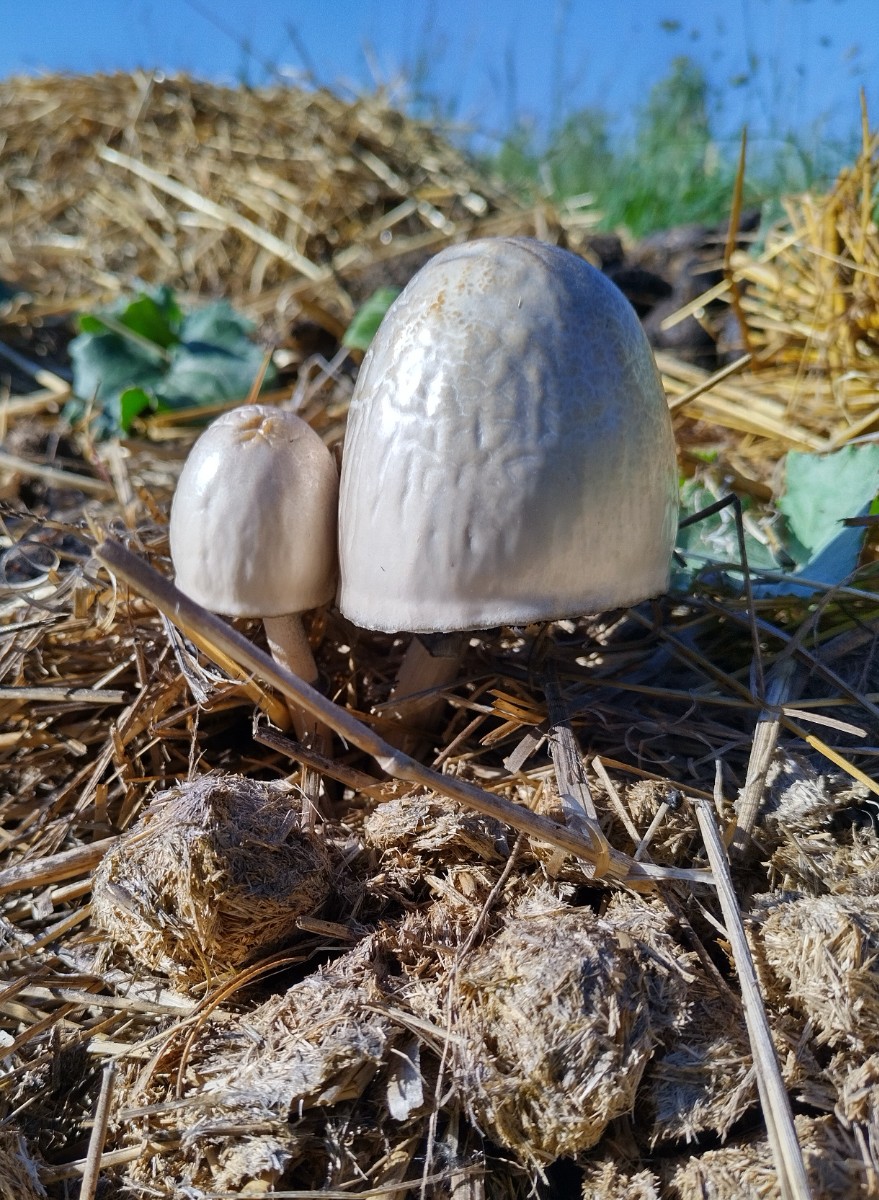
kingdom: Fungi
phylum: Basidiomycota
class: Agaricomycetes
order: Agaricales
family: Bolbitiaceae
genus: Panaeolus
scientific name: Panaeolus semiovatus
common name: ring-glanshat
